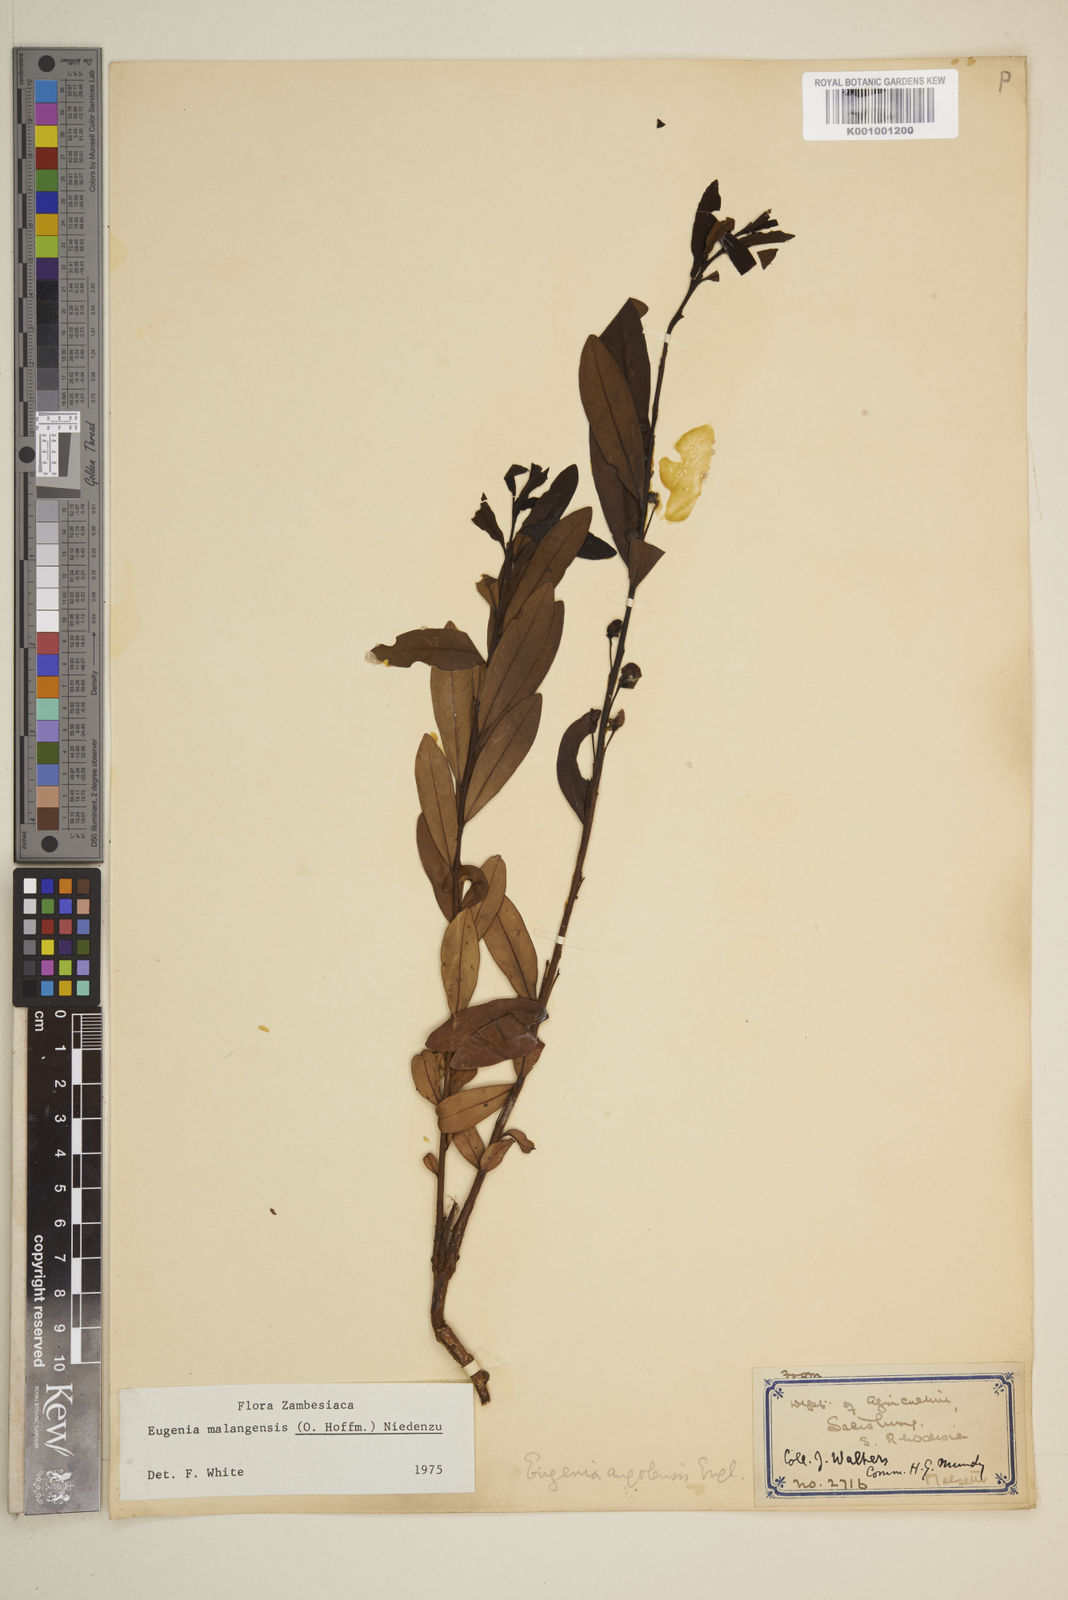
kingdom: Plantae
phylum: Tracheophyta
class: Magnoliopsida
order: Myrtales
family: Myrtaceae
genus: Eugenia
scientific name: Eugenia malangensis
